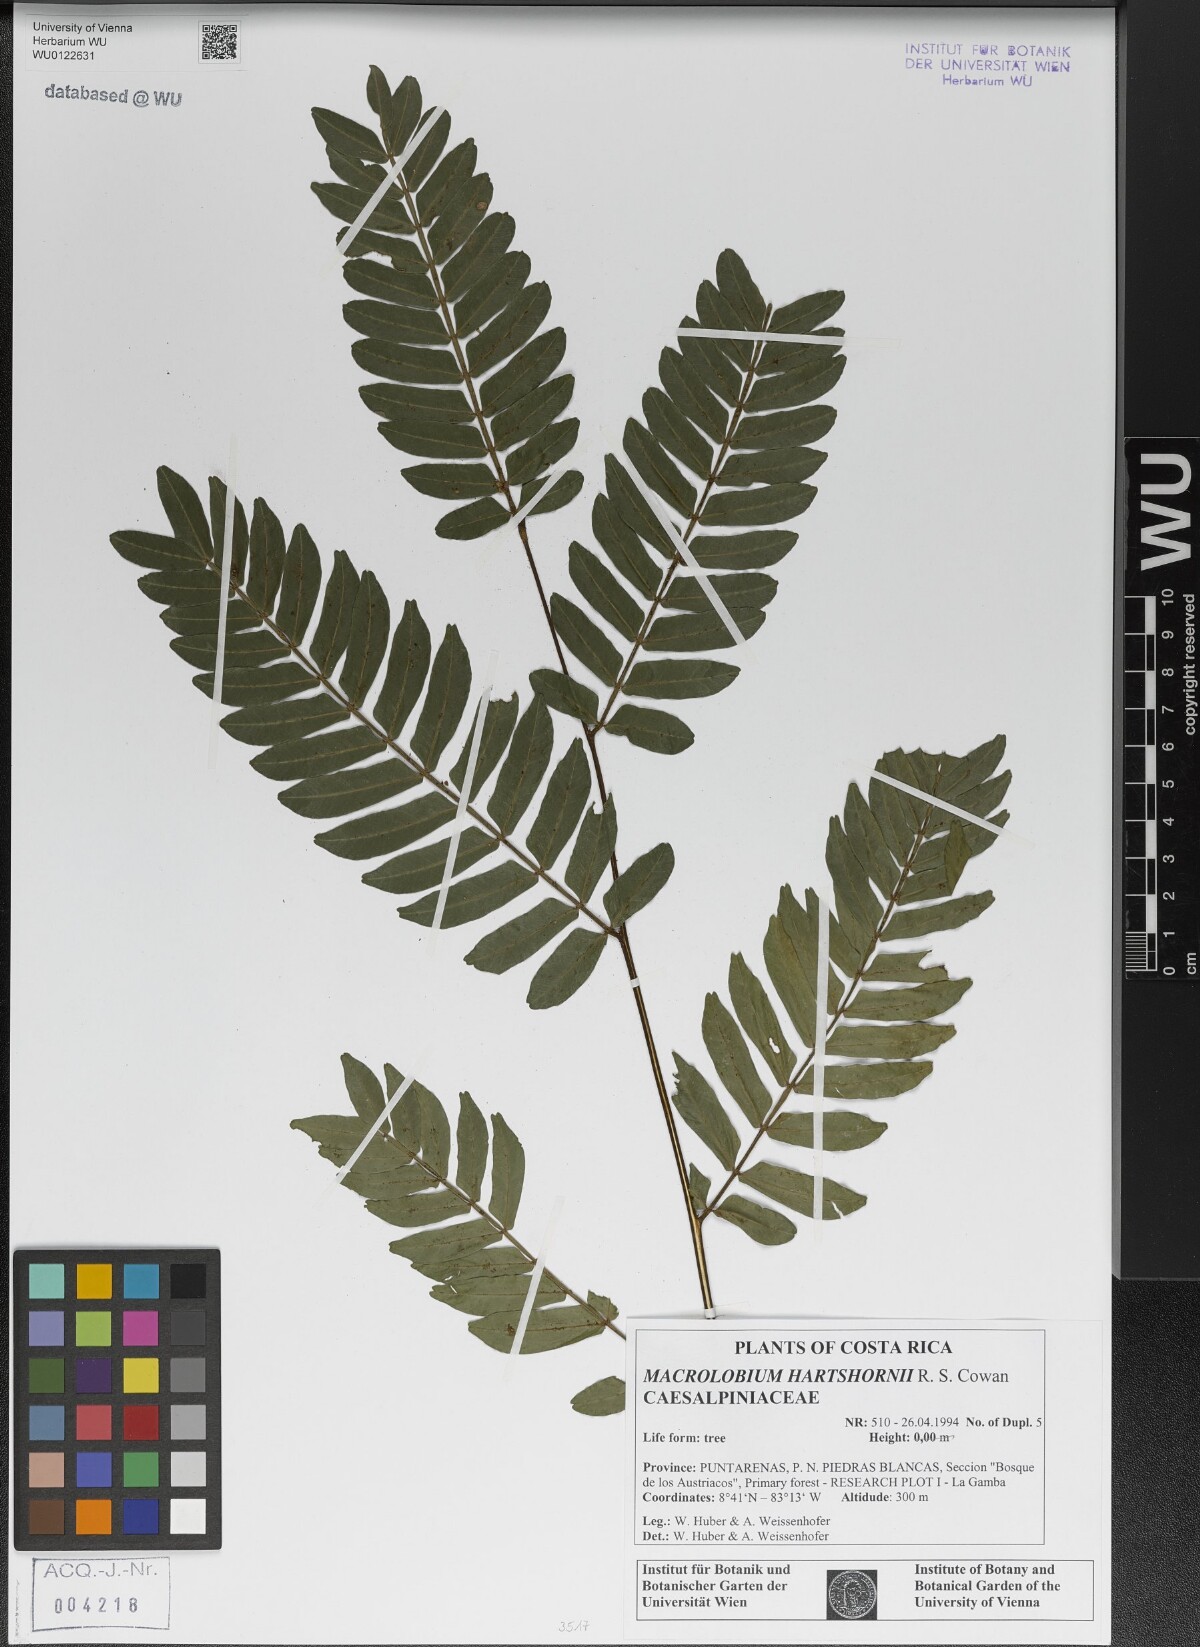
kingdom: Plantae
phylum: Tracheophyta
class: Magnoliopsida
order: Fabales
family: Fabaceae
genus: Macrolobium
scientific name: Macrolobium hartshornii
